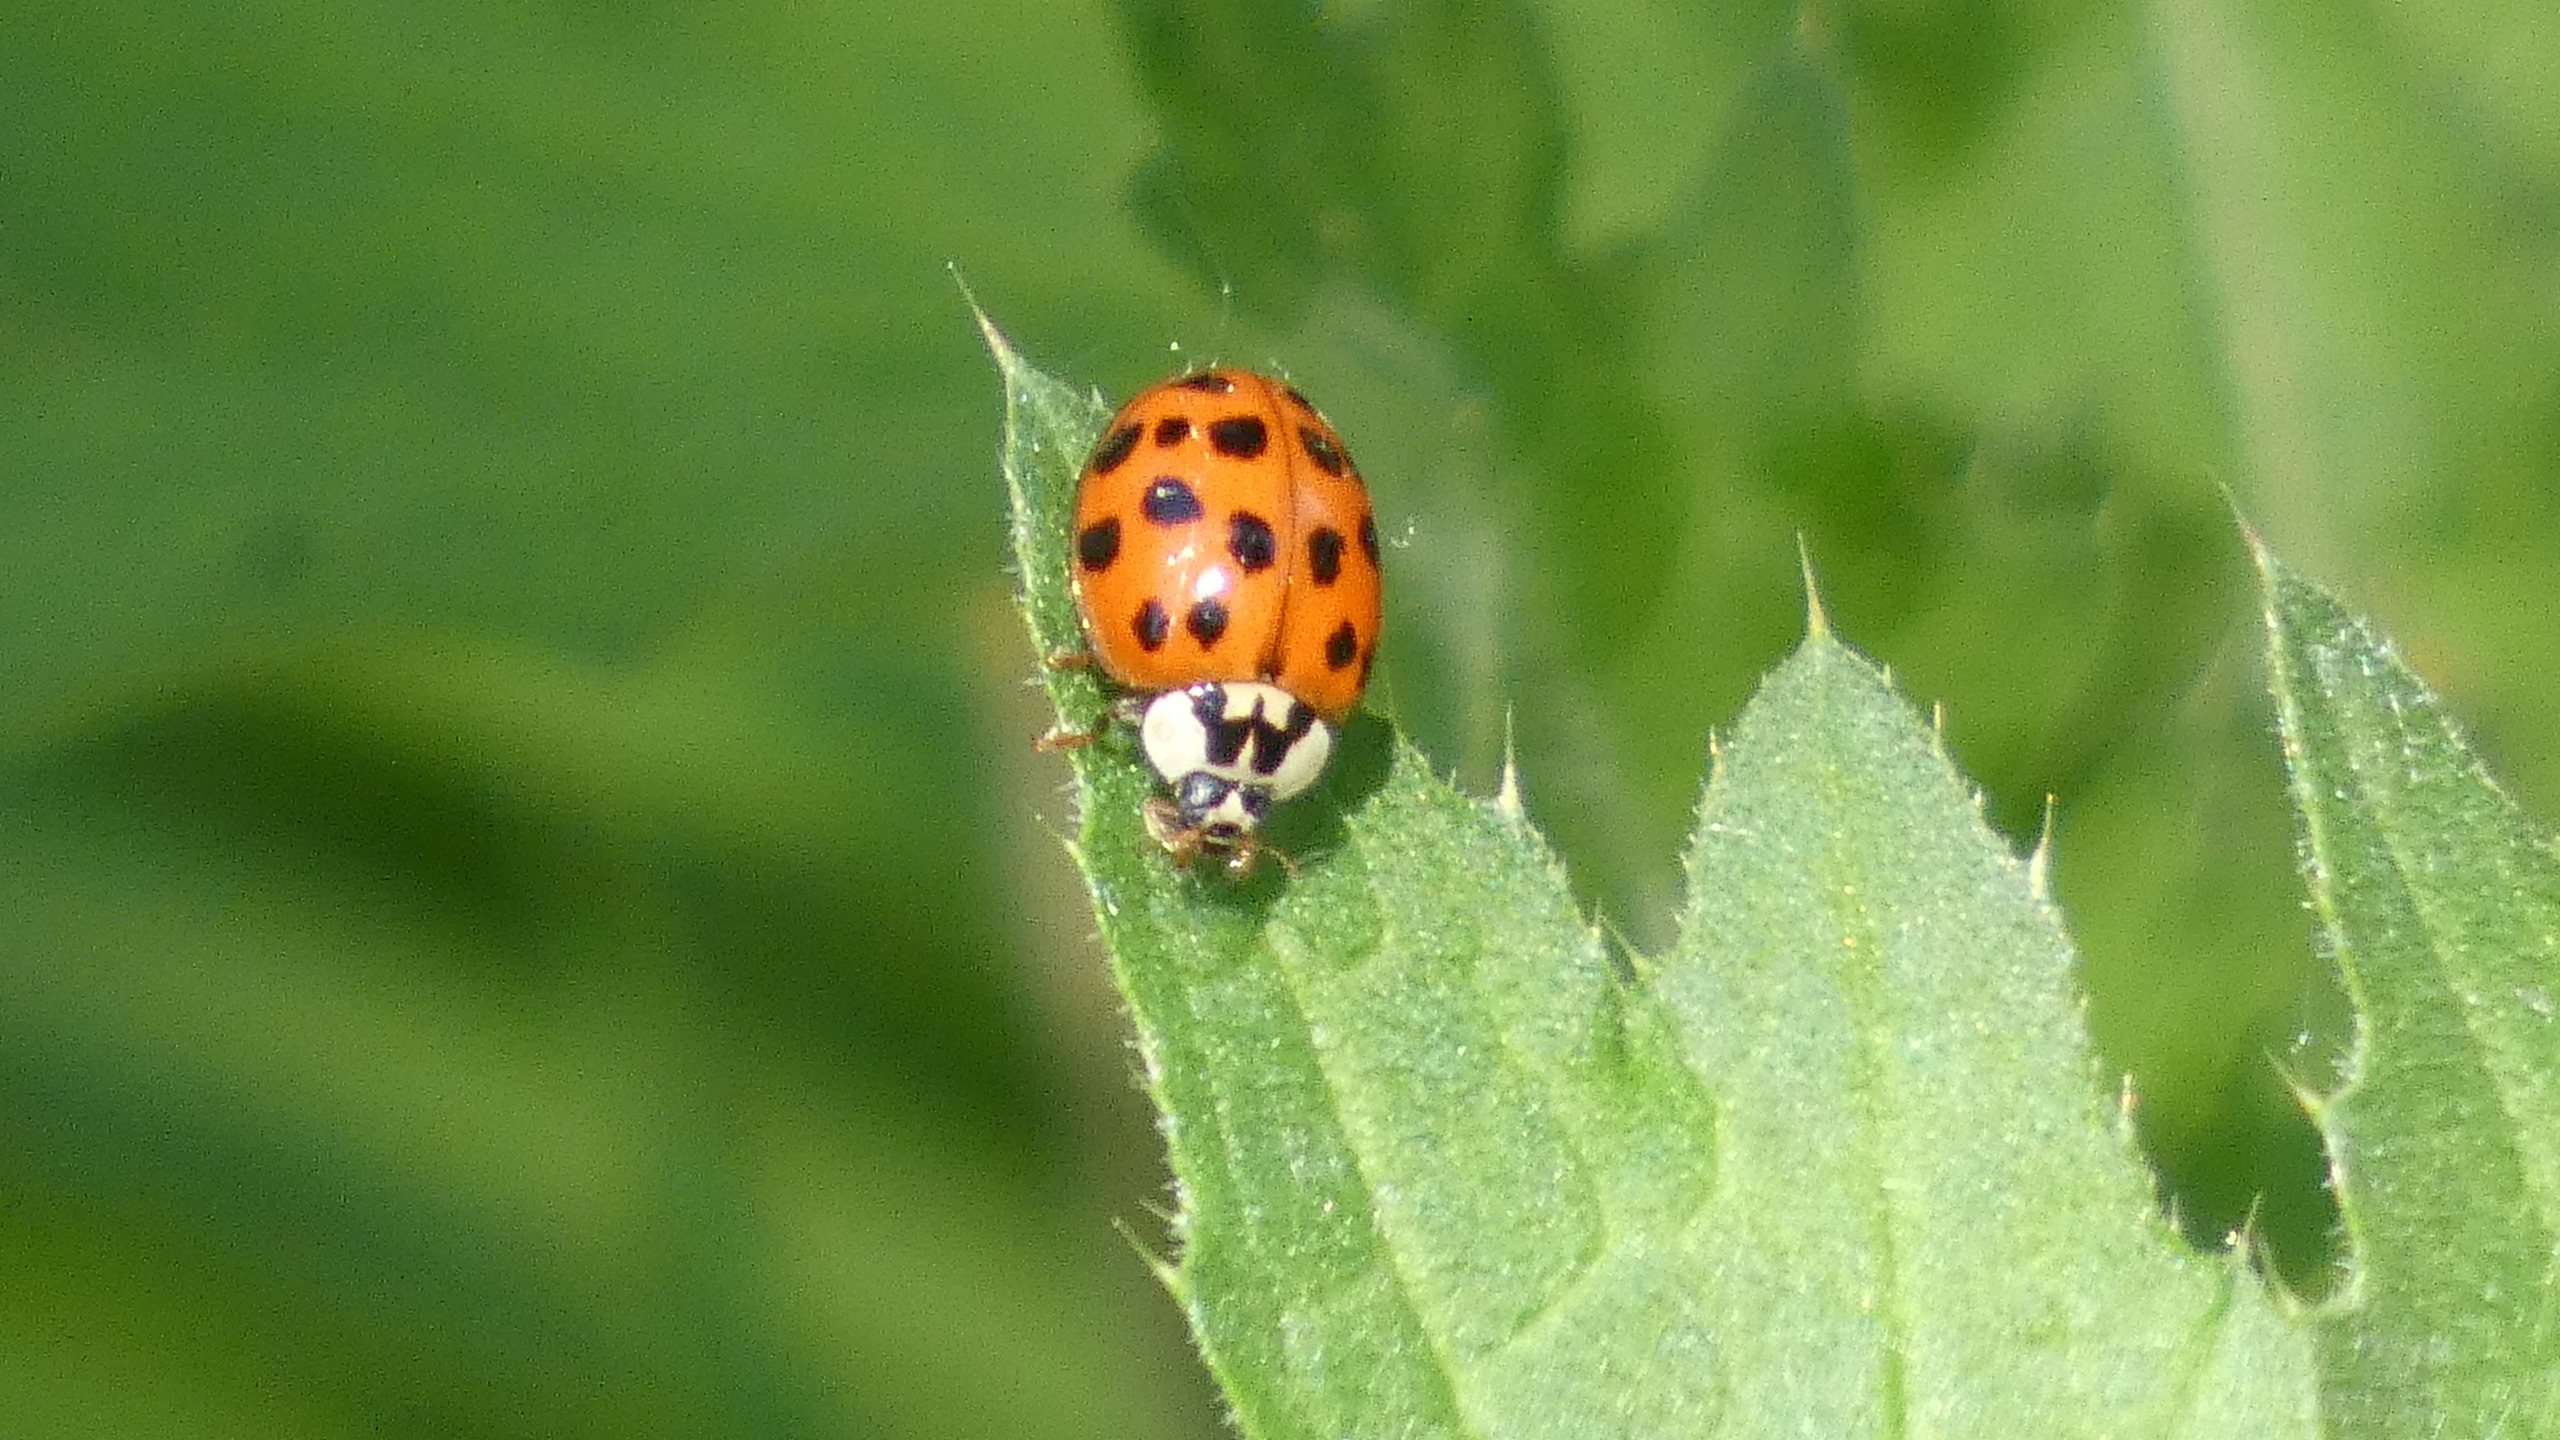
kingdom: Animalia
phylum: Arthropoda
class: Insecta
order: Coleoptera
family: Coccinellidae
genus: Harmonia
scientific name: Harmonia axyridis
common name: Harlekinmariehøne
